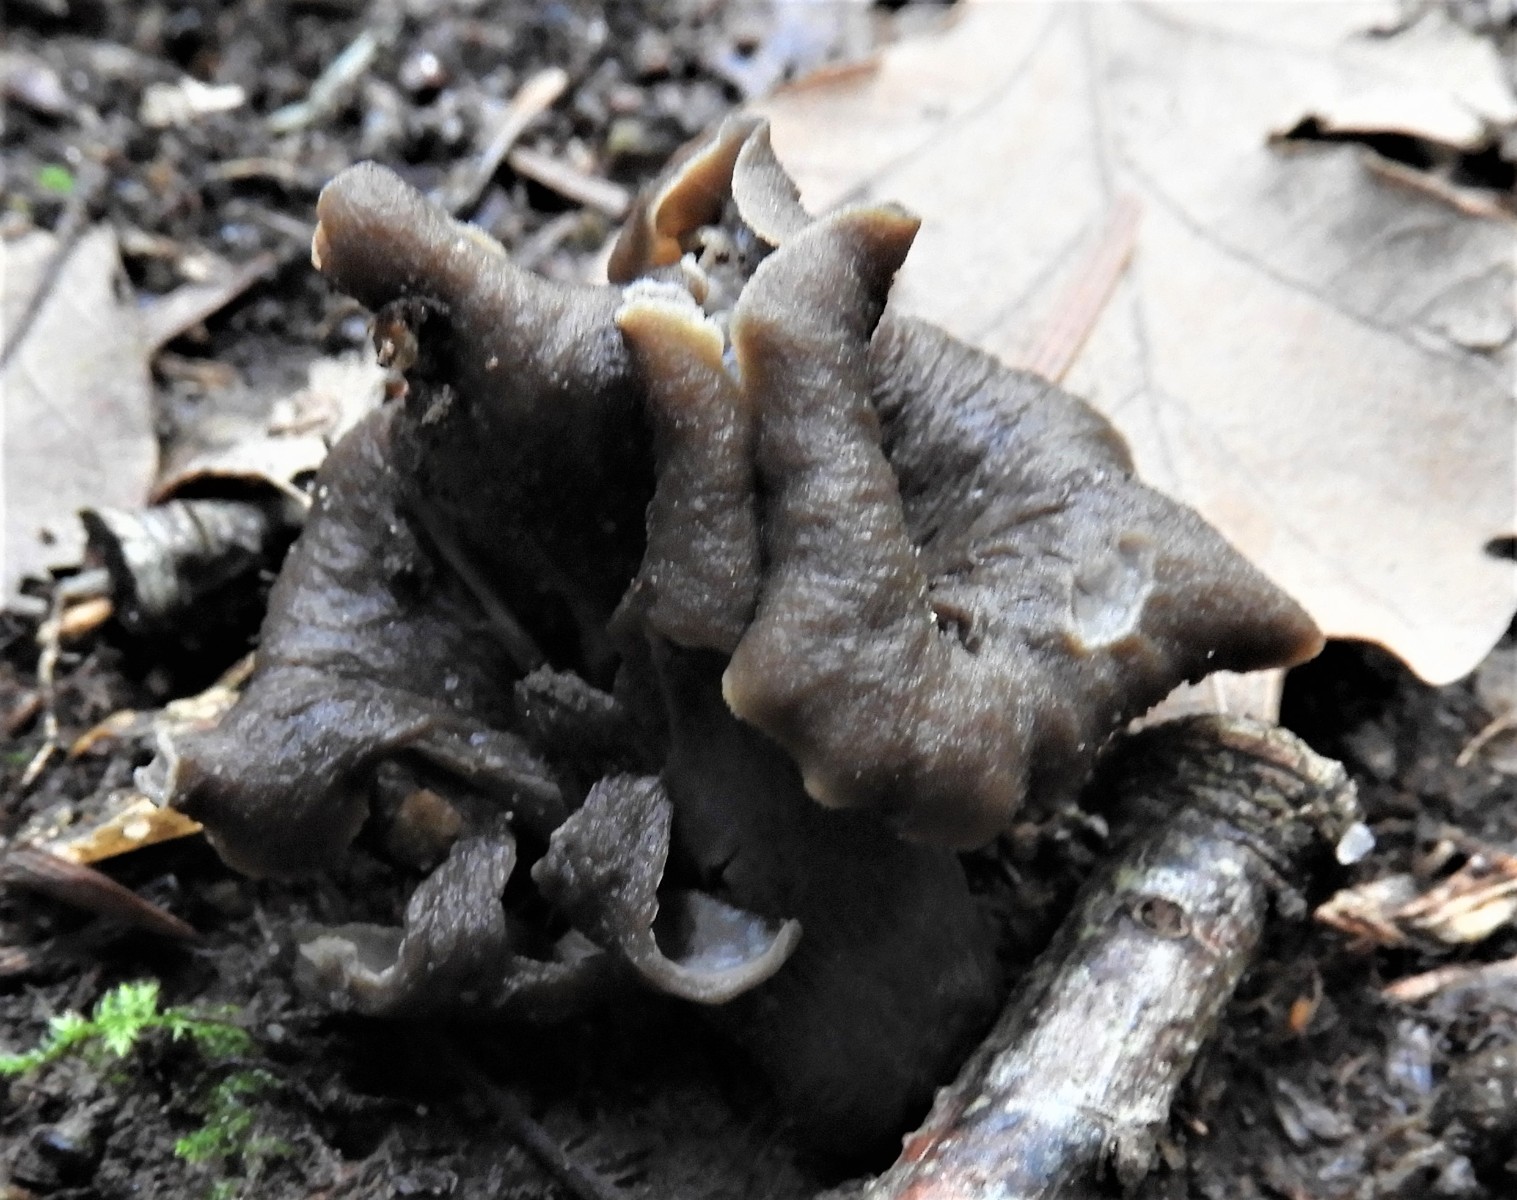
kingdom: Fungi
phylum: Basidiomycota
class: Agaricomycetes
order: Cantharellales
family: Hydnaceae
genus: Craterellus
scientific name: Craterellus cornucopioides
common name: trompetsvamp
